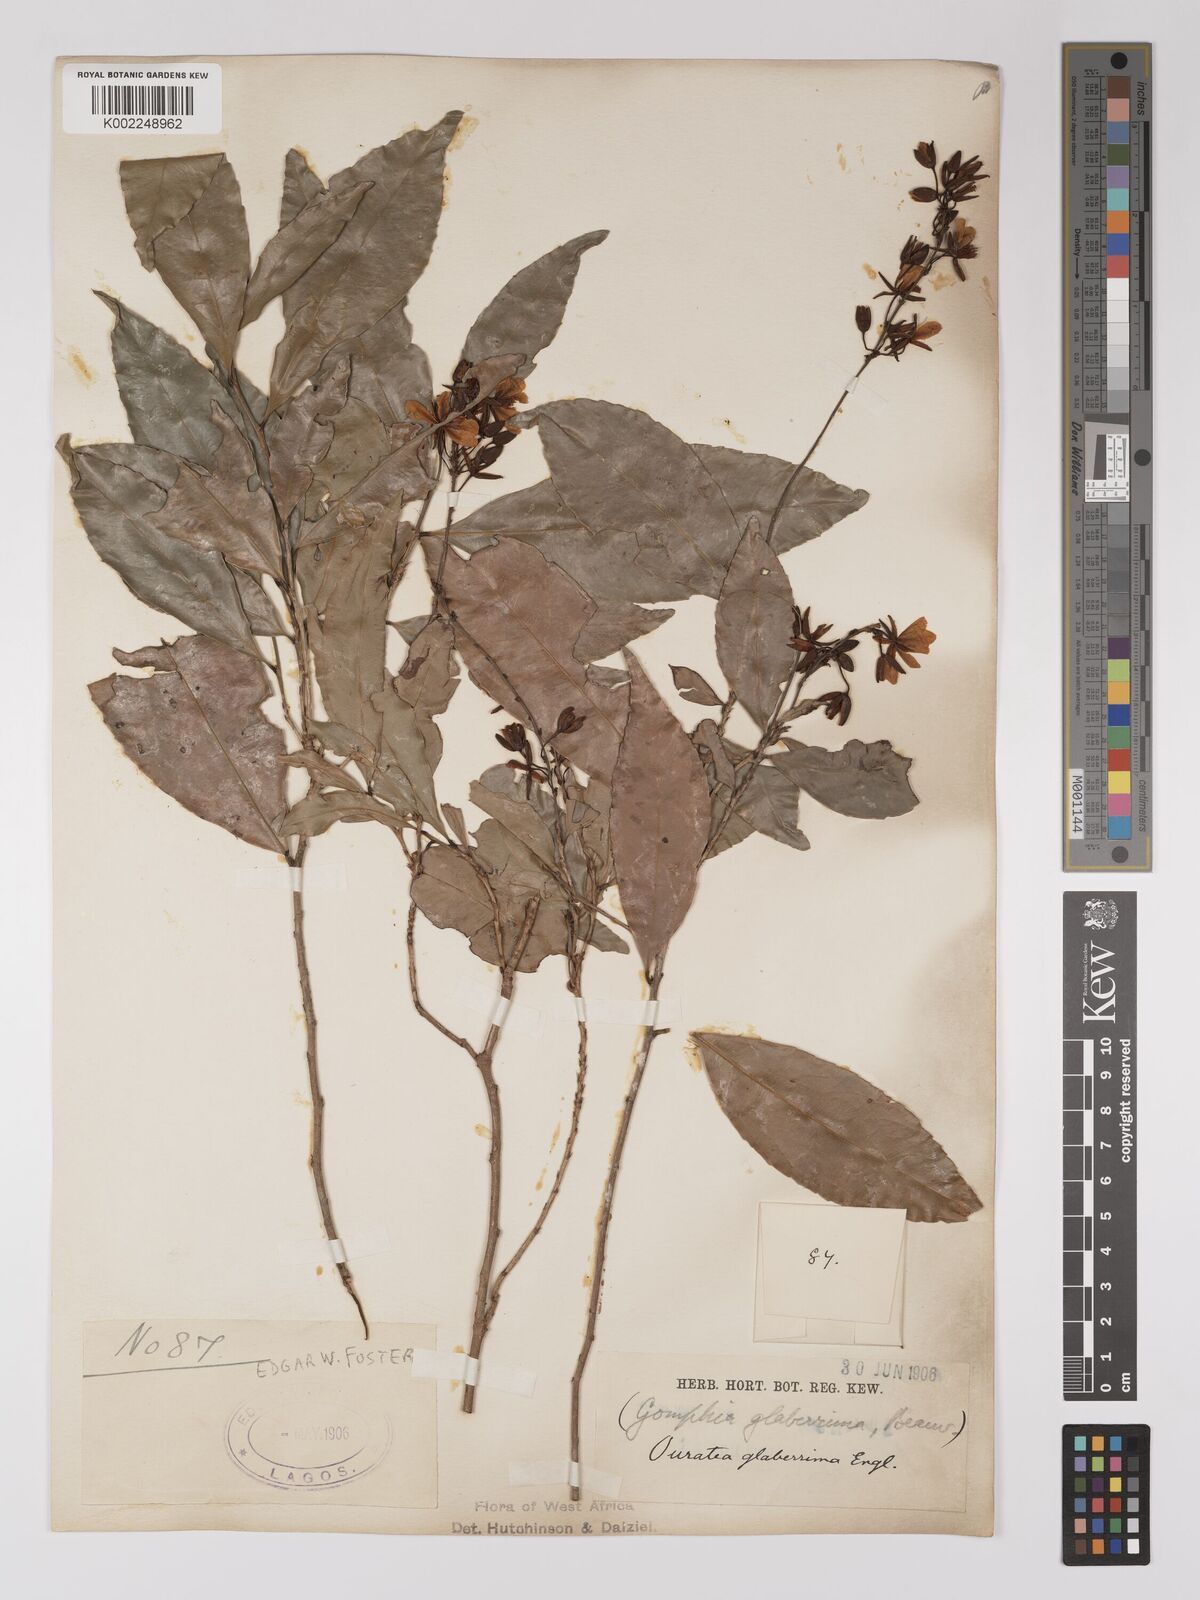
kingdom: Plantae
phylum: Tracheophyta
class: Magnoliopsida
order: Malpighiales
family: Ochnaceae
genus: Campylospermum
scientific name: Campylospermum glaberrimum
